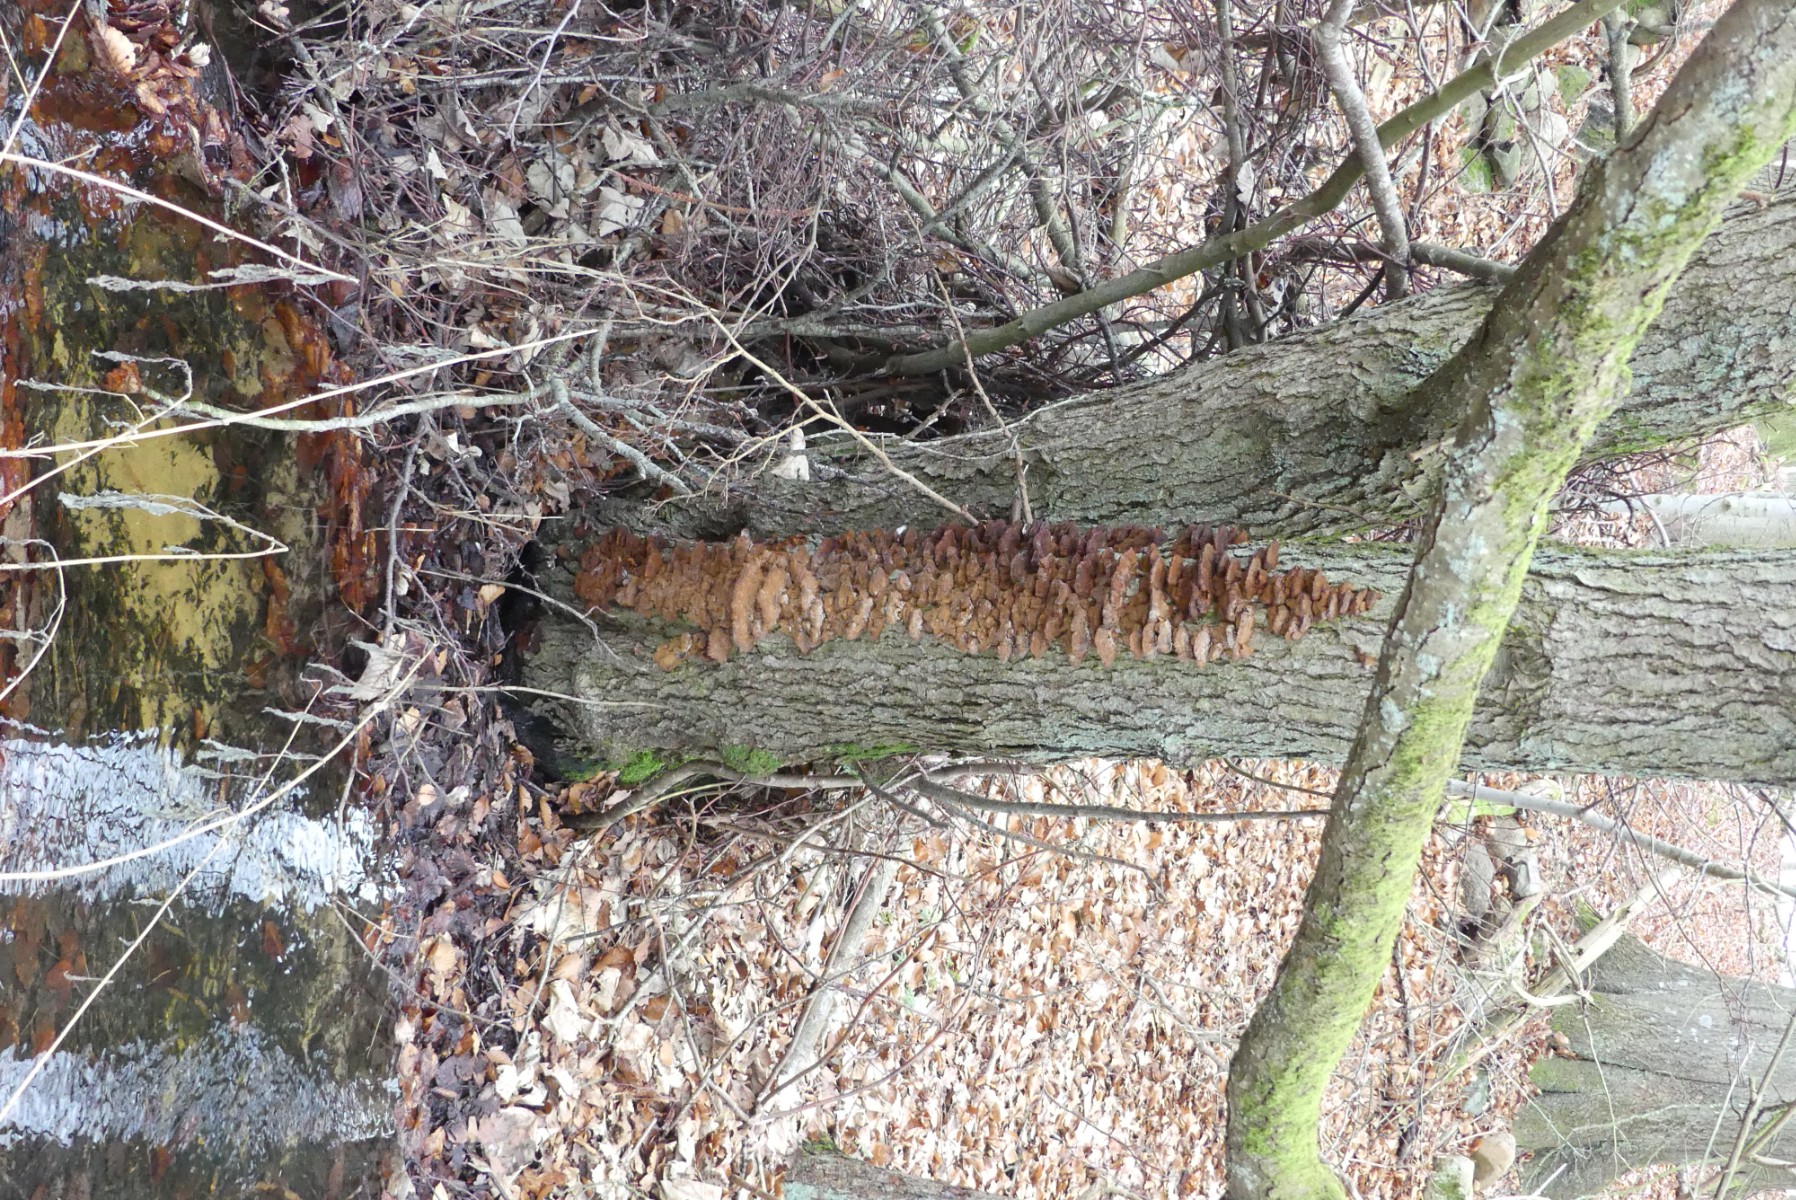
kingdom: Fungi
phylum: Basidiomycota
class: Agaricomycetes
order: Hymenochaetales
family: Hymenochaetaceae
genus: Xanthoporia
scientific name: Xanthoporia radiata
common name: elle-spejlporesvamp
